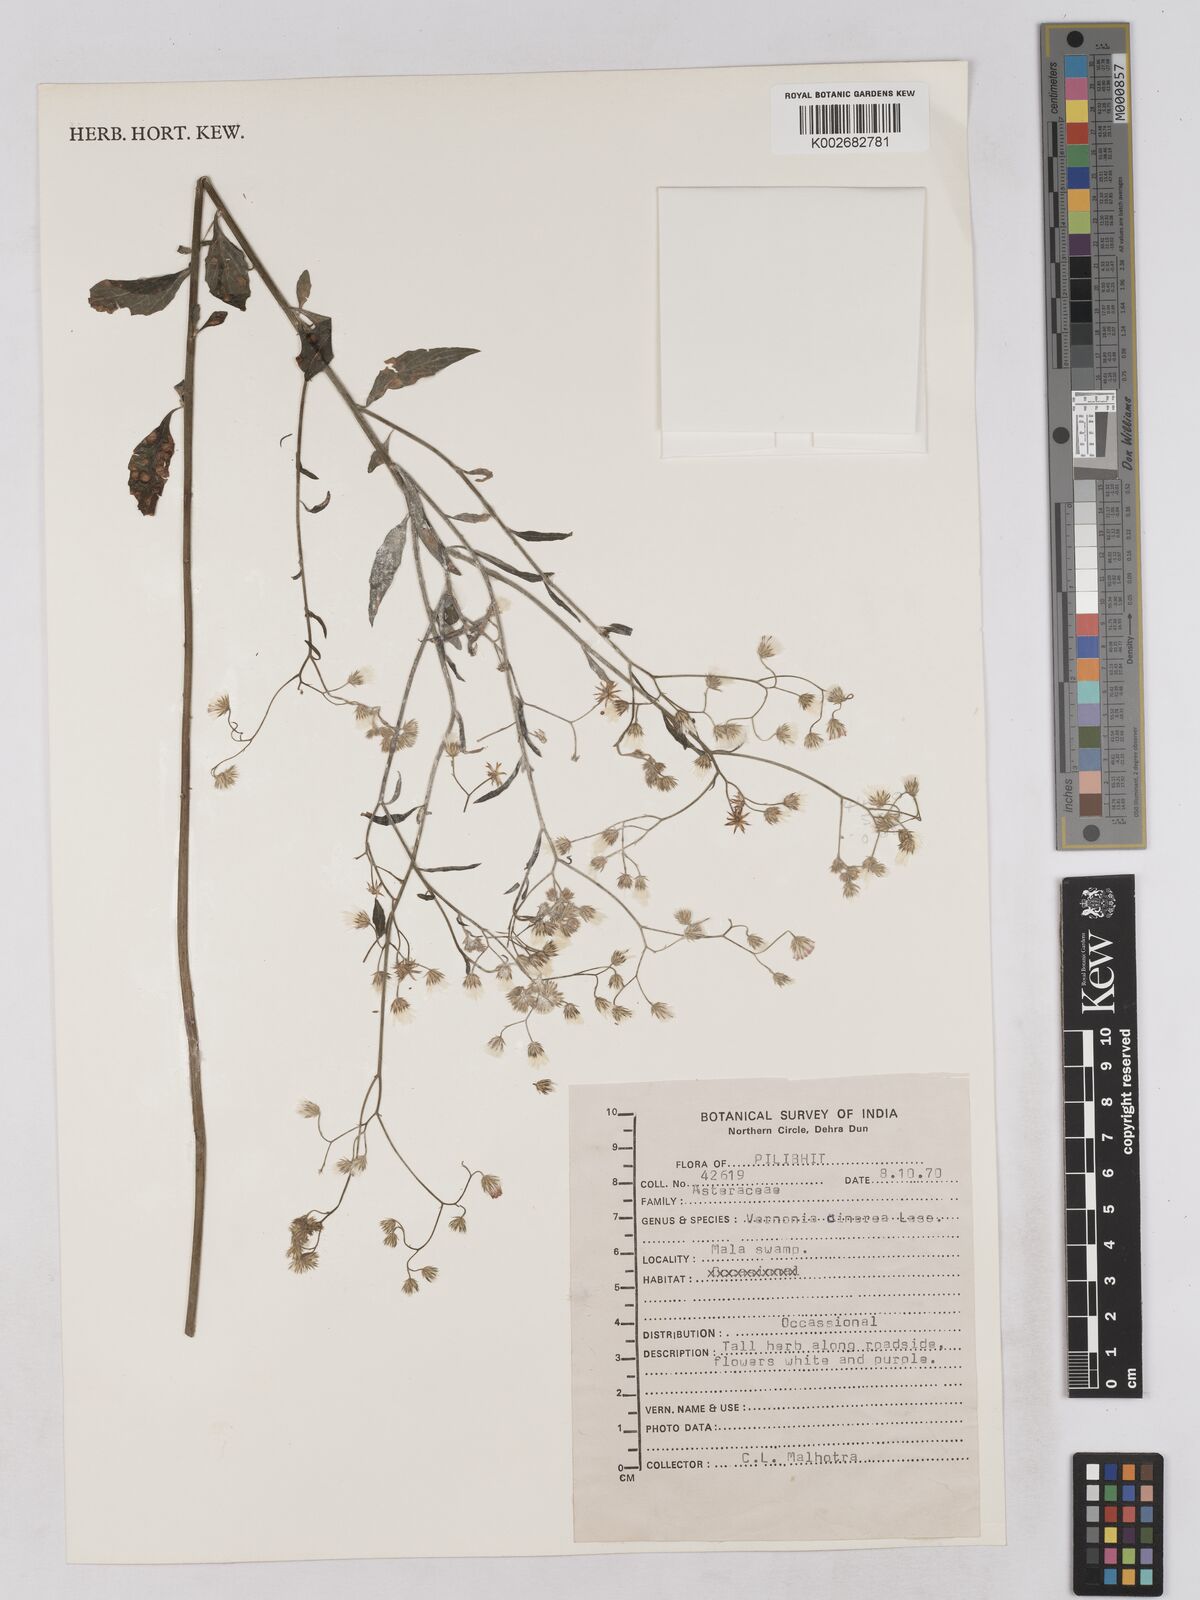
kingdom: Plantae
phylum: Tracheophyta
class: Magnoliopsida
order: Asterales
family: Asteraceae
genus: Cyanthillium
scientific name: Cyanthillium cinereum
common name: Little ironweed
